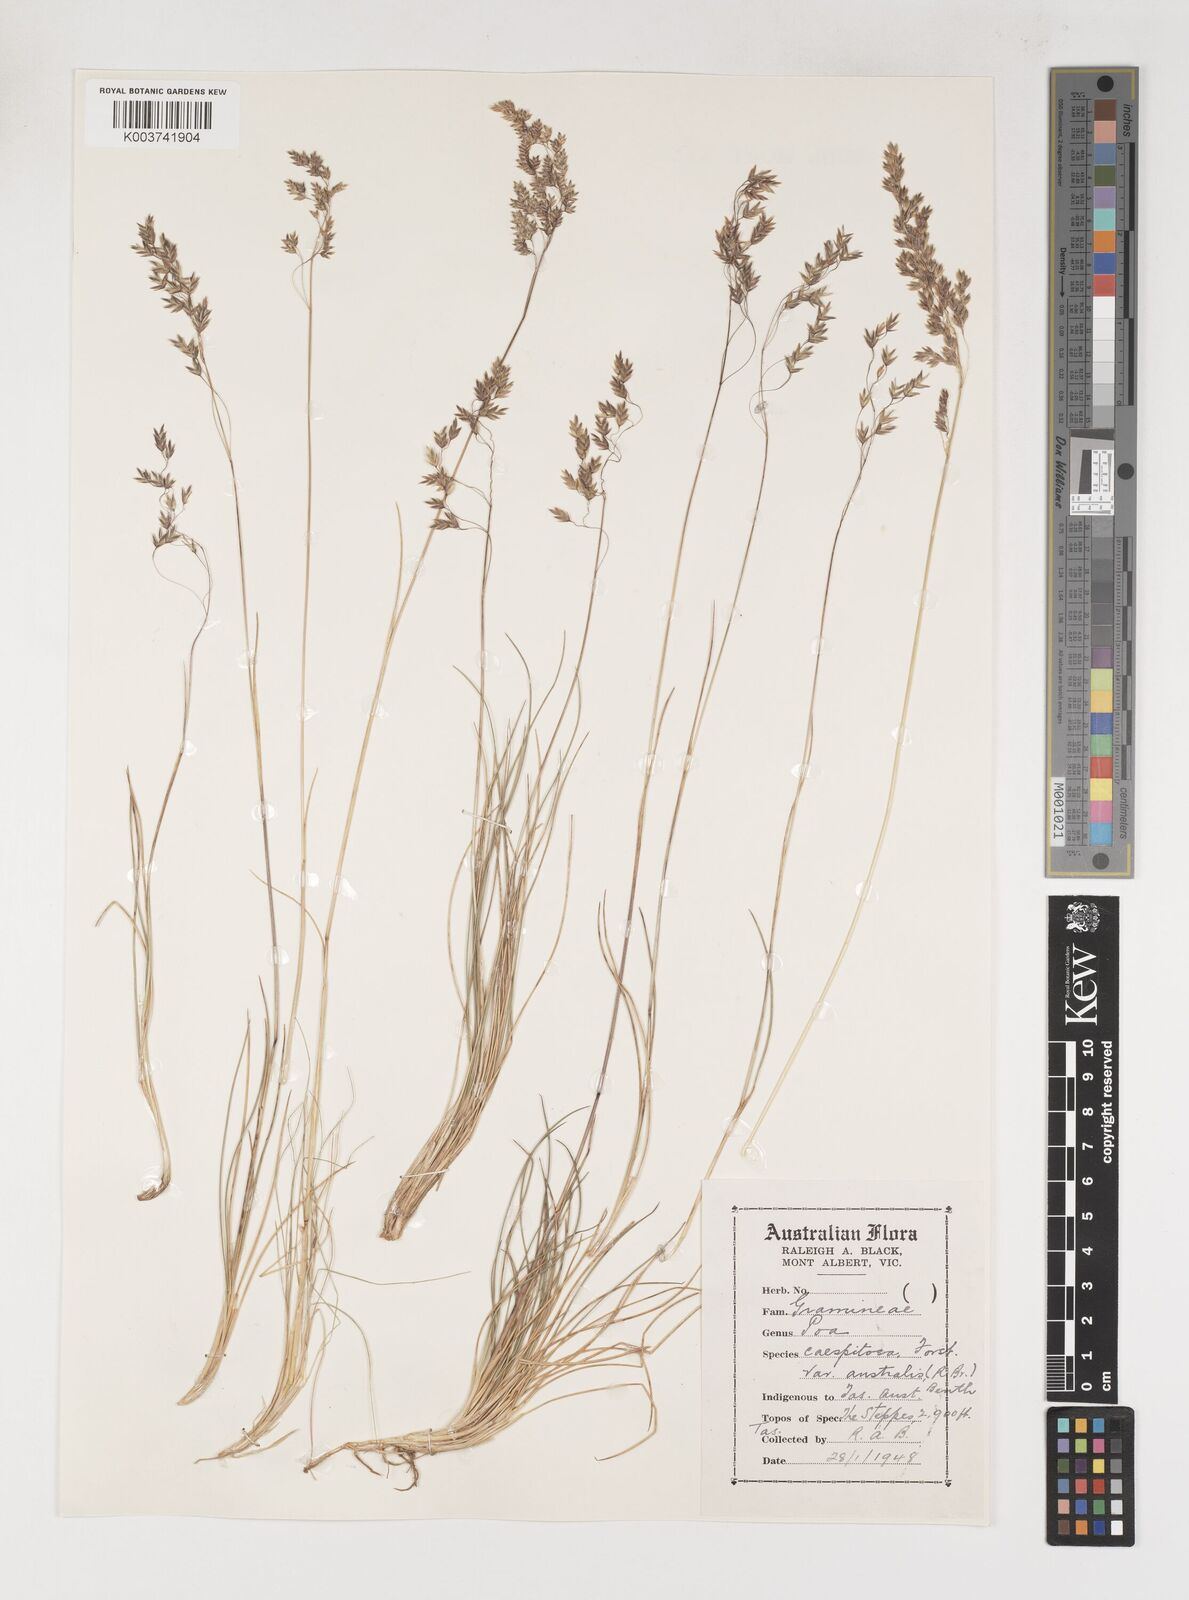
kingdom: Plantae
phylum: Tracheophyta
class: Liliopsida
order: Poales
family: Poaceae
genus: Poa
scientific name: Poa sieberiana
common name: Tussock poa
